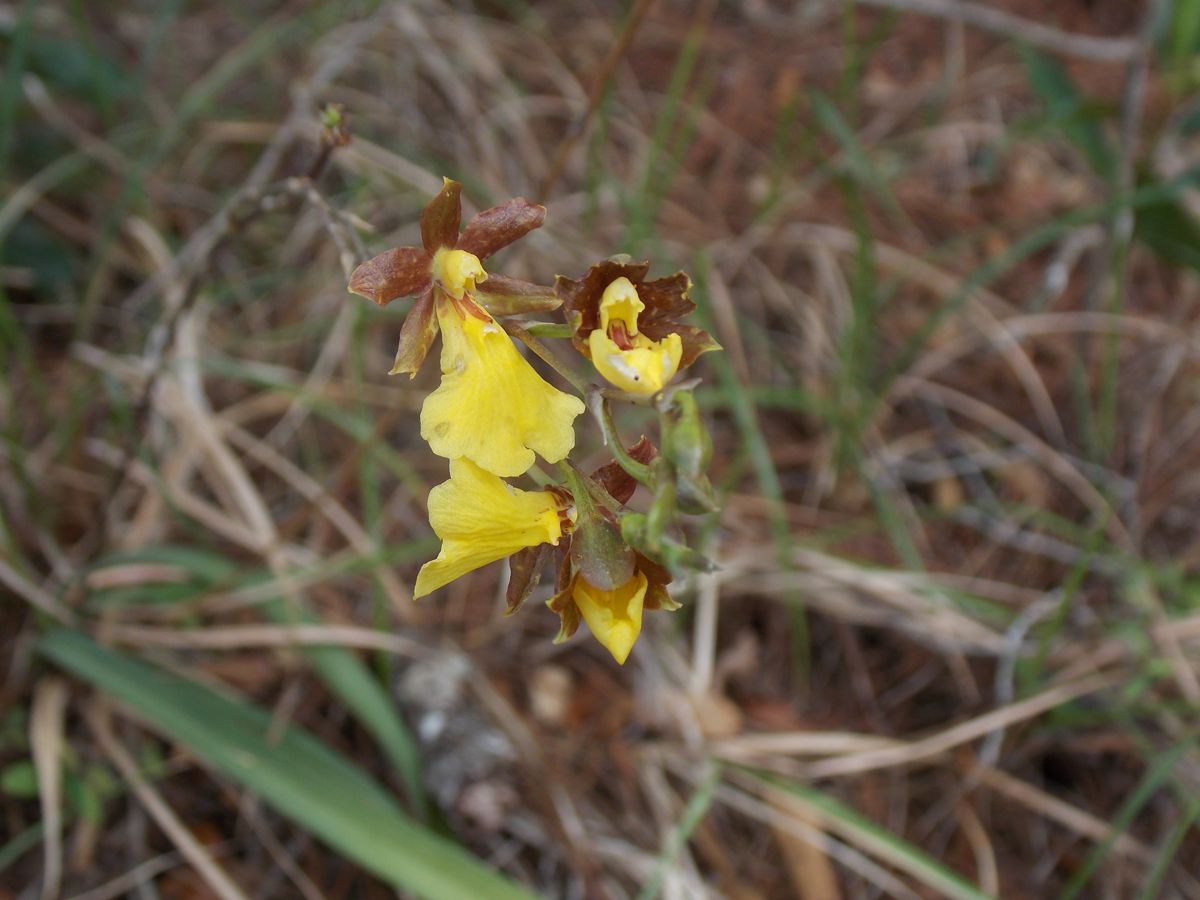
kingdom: Plantae
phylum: Tracheophyta
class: Liliopsida
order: Asparagales
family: Orchidaceae
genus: Oncidium
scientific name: Oncidium brachyandrum
